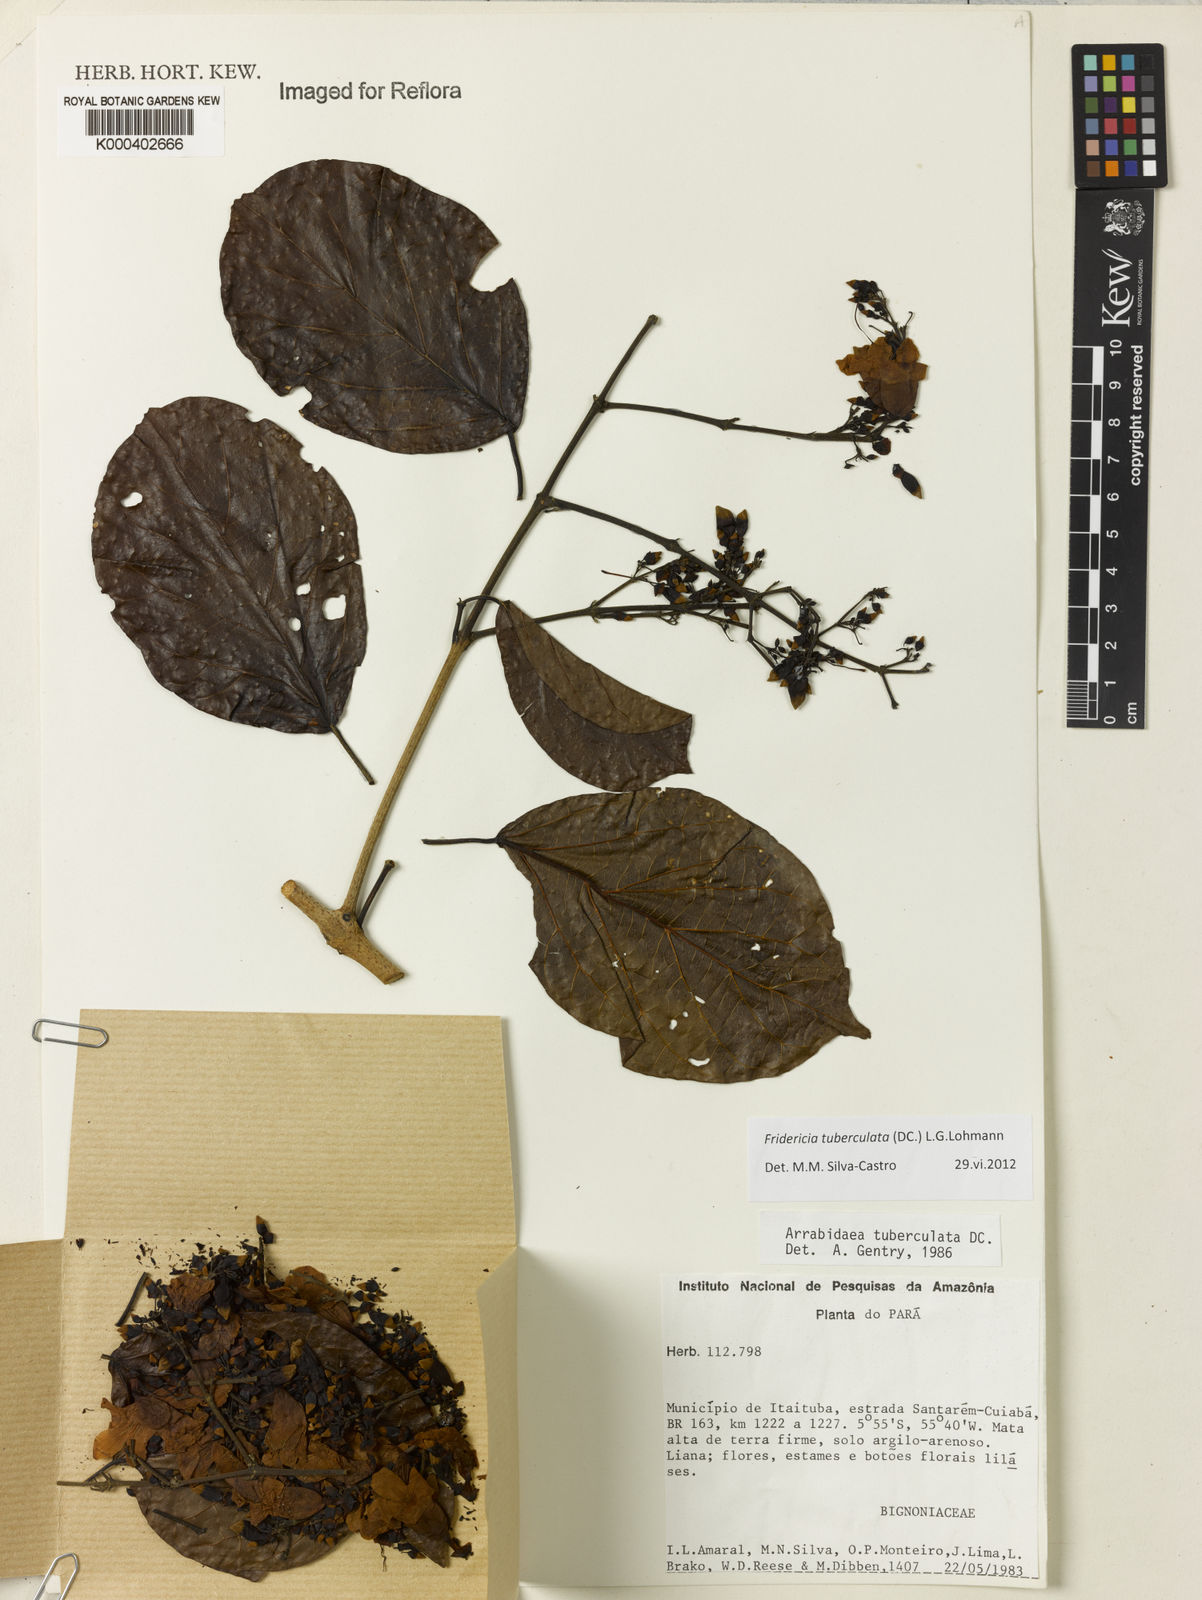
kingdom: Plantae
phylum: Tracheophyta
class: Magnoliopsida
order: Lamiales
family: Bignoniaceae
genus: Fridericia
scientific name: Fridericia tuberculata
